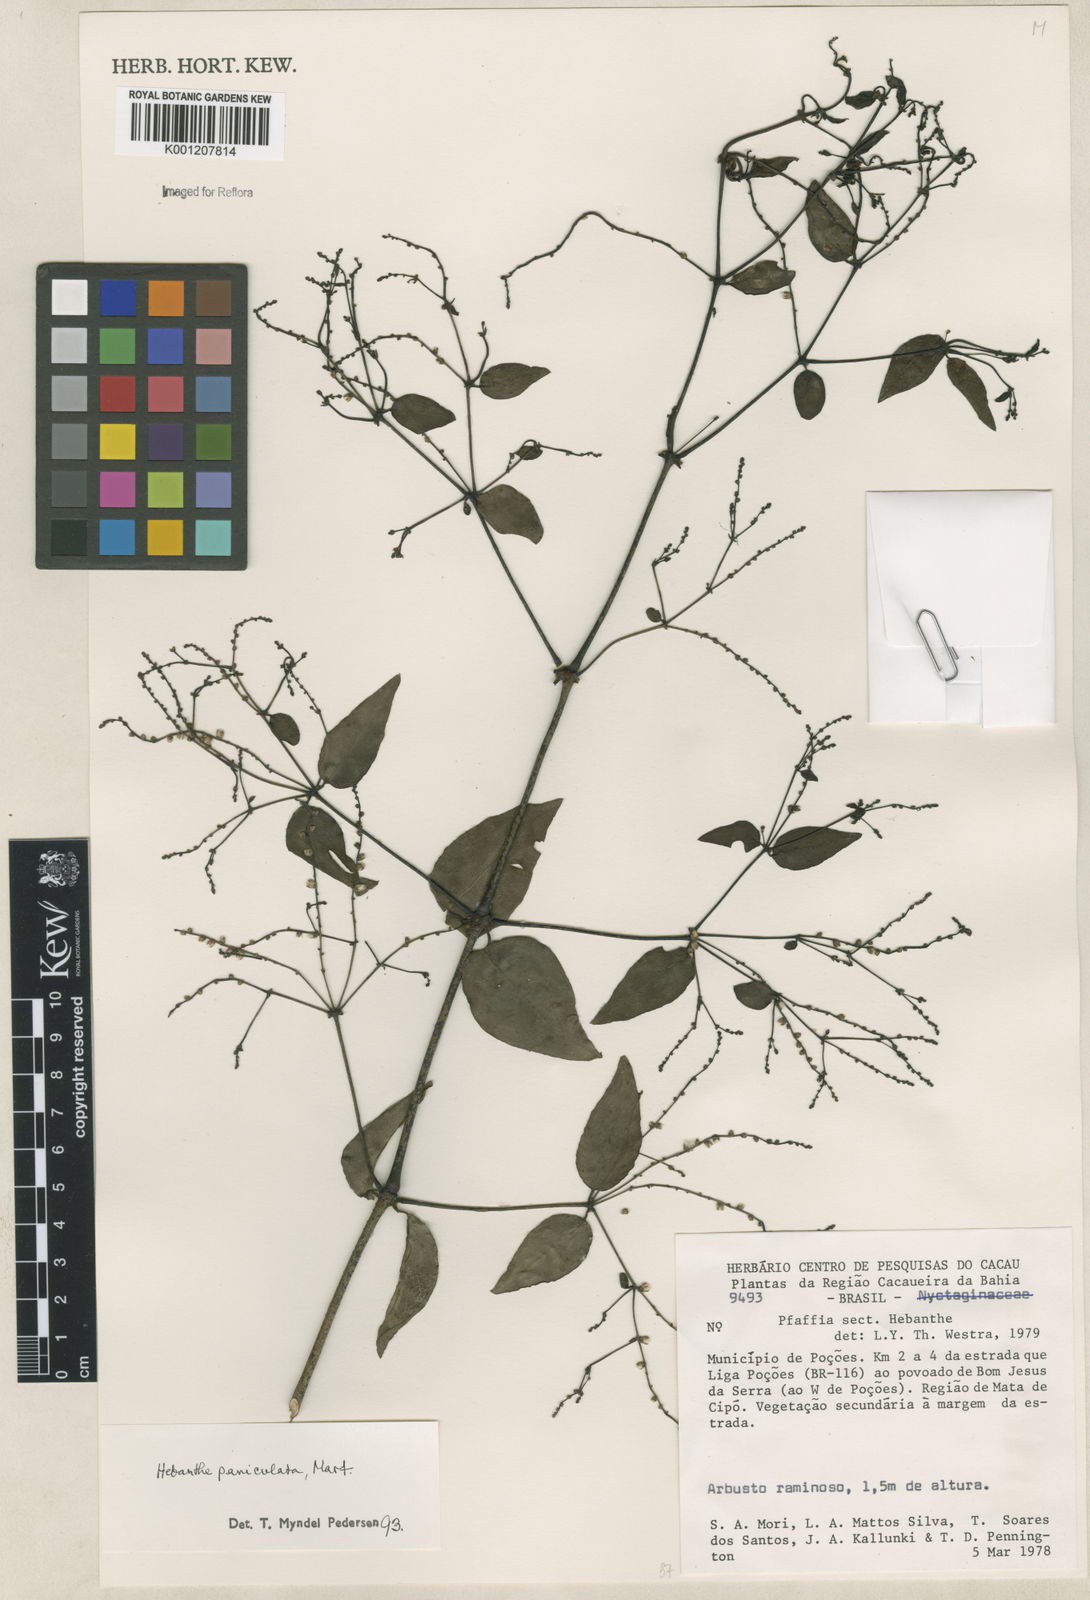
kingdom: Plantae
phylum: Tracheophyta
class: Magnoliopsida
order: Caryophyllales
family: Amaranthaceae
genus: Hebanthe
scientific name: Hebanthe erianthos
